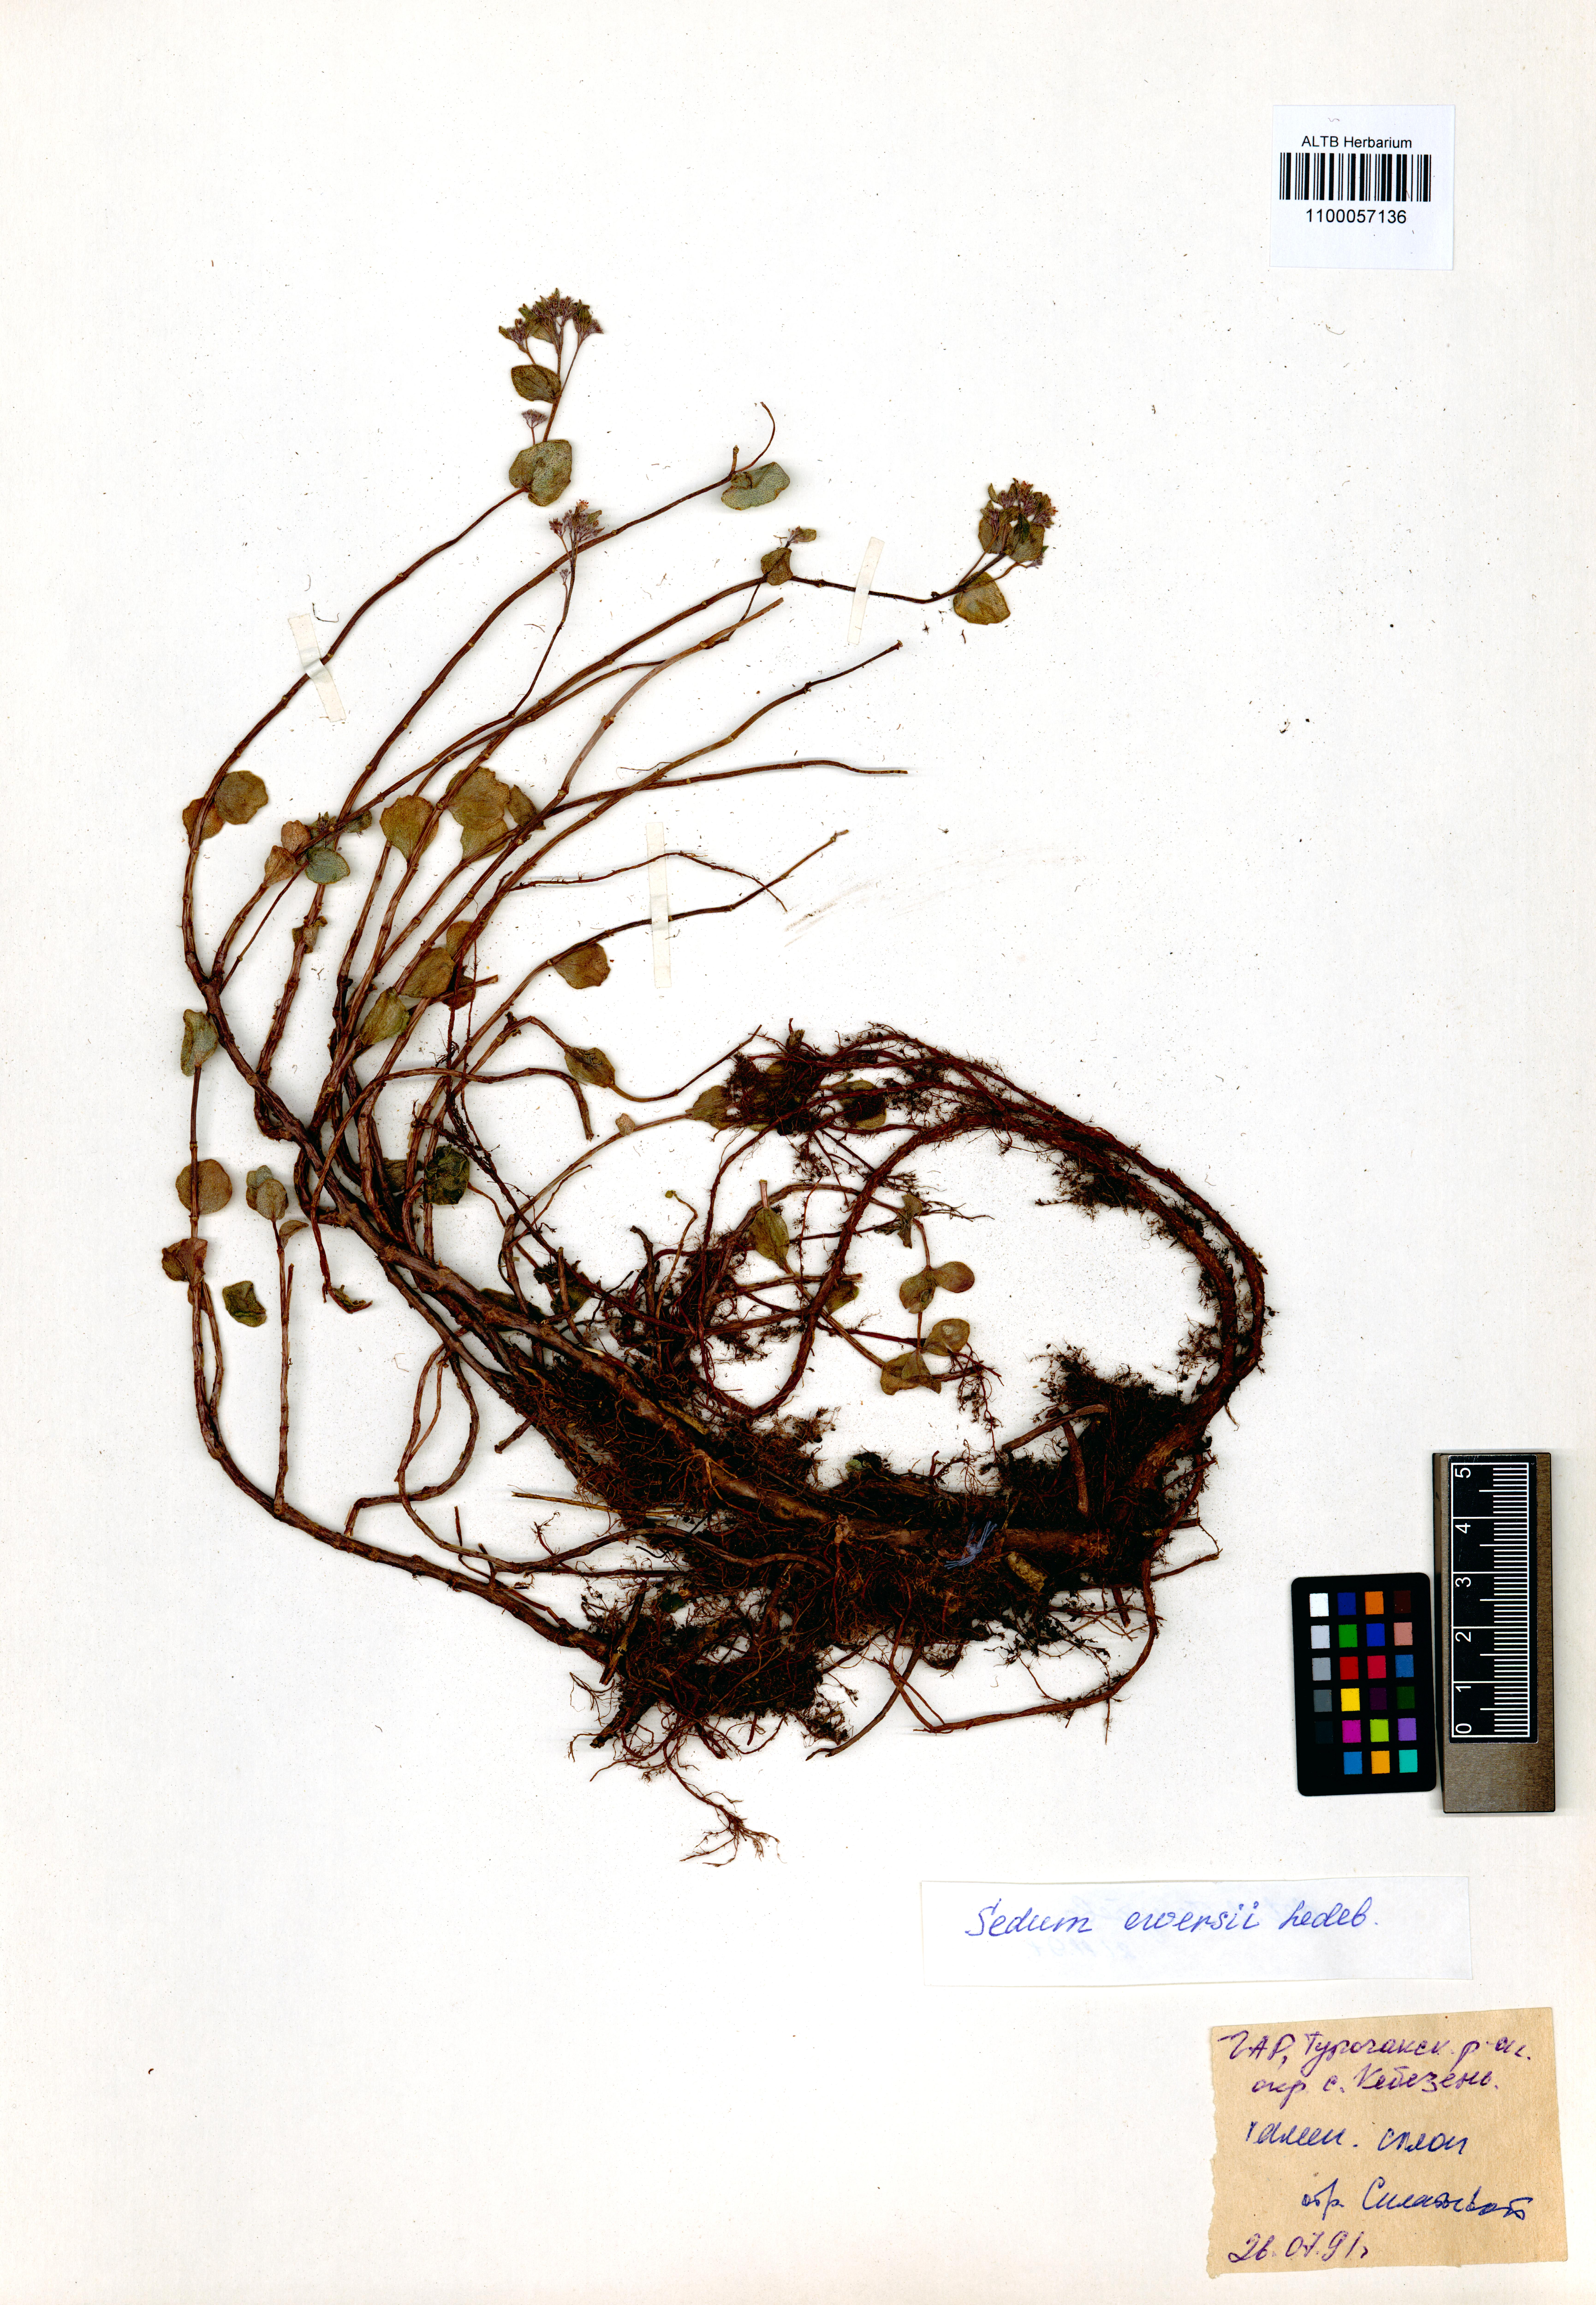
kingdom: Plantae
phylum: Tracheophyta
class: Magnoliopsida
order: Saxifragales
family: Crassulaceae
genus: Hylotelephium
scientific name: Hylotelephium ewersii
